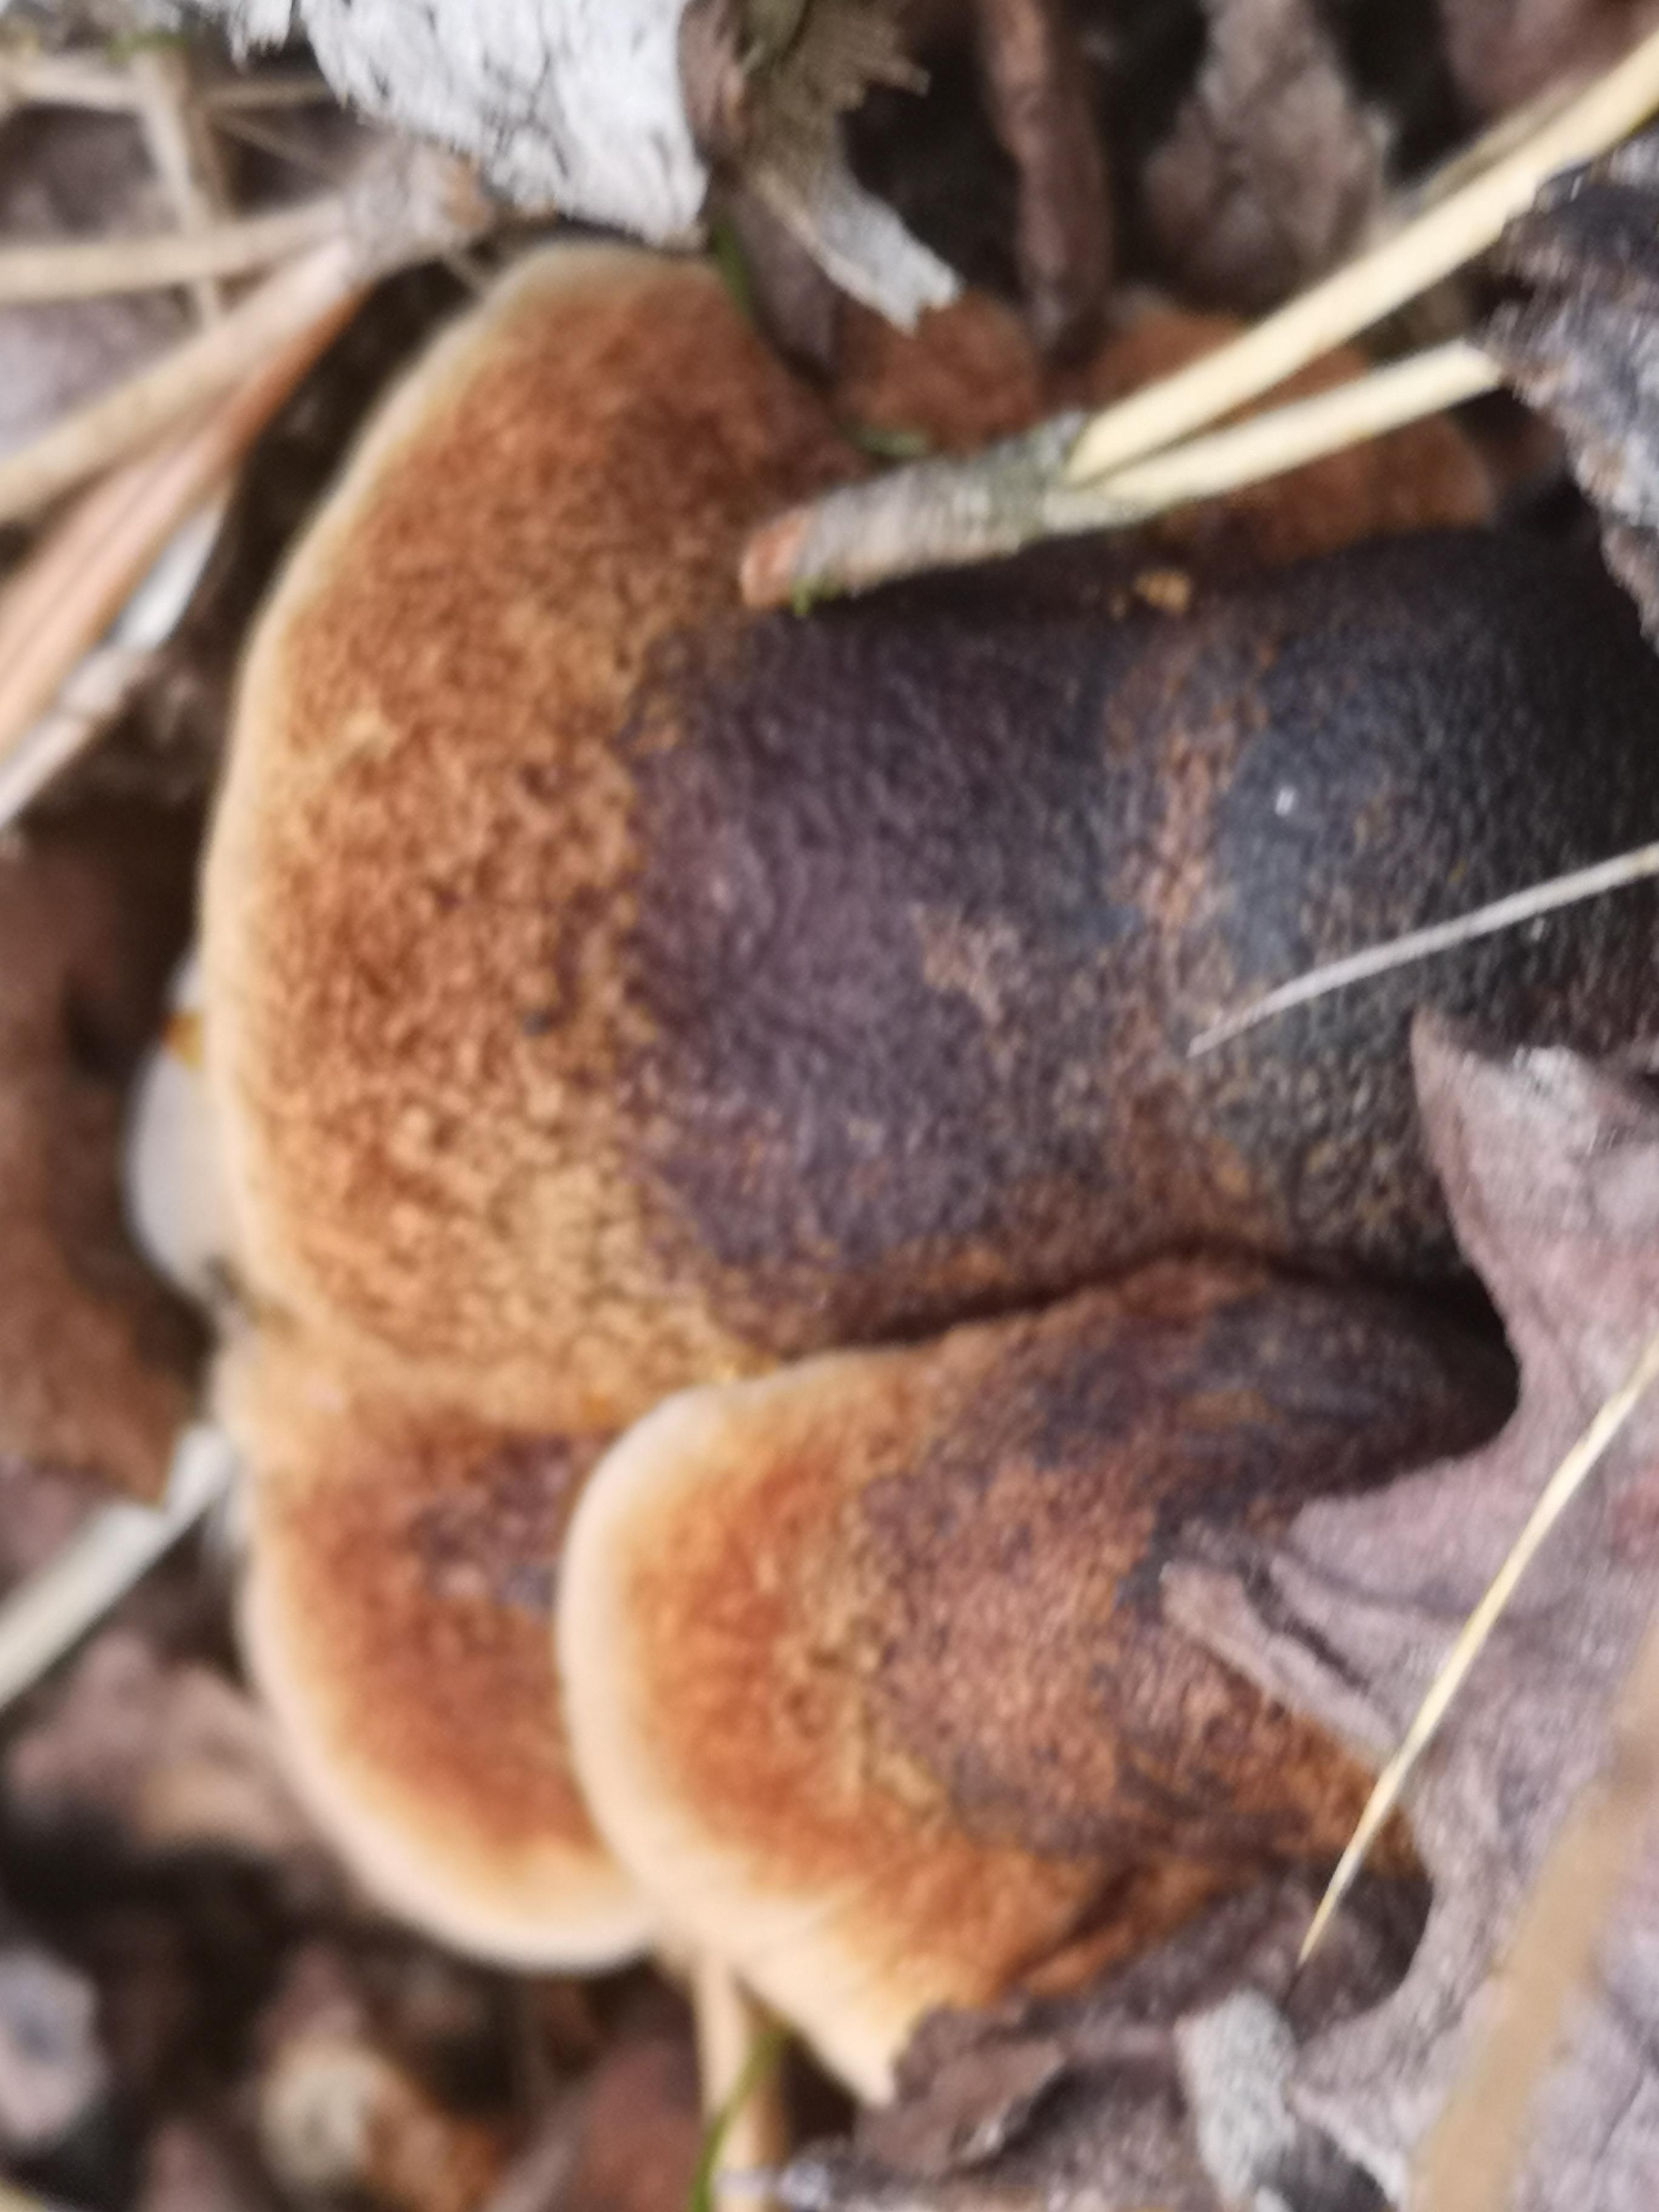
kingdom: Fungi
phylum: Basidiomycota
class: Agaricomycetes
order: Polyporales
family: Ischnodermataceae
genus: Ischnoderma
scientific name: Ischnoderma benzoinum
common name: gran-tjæreporesvamp
